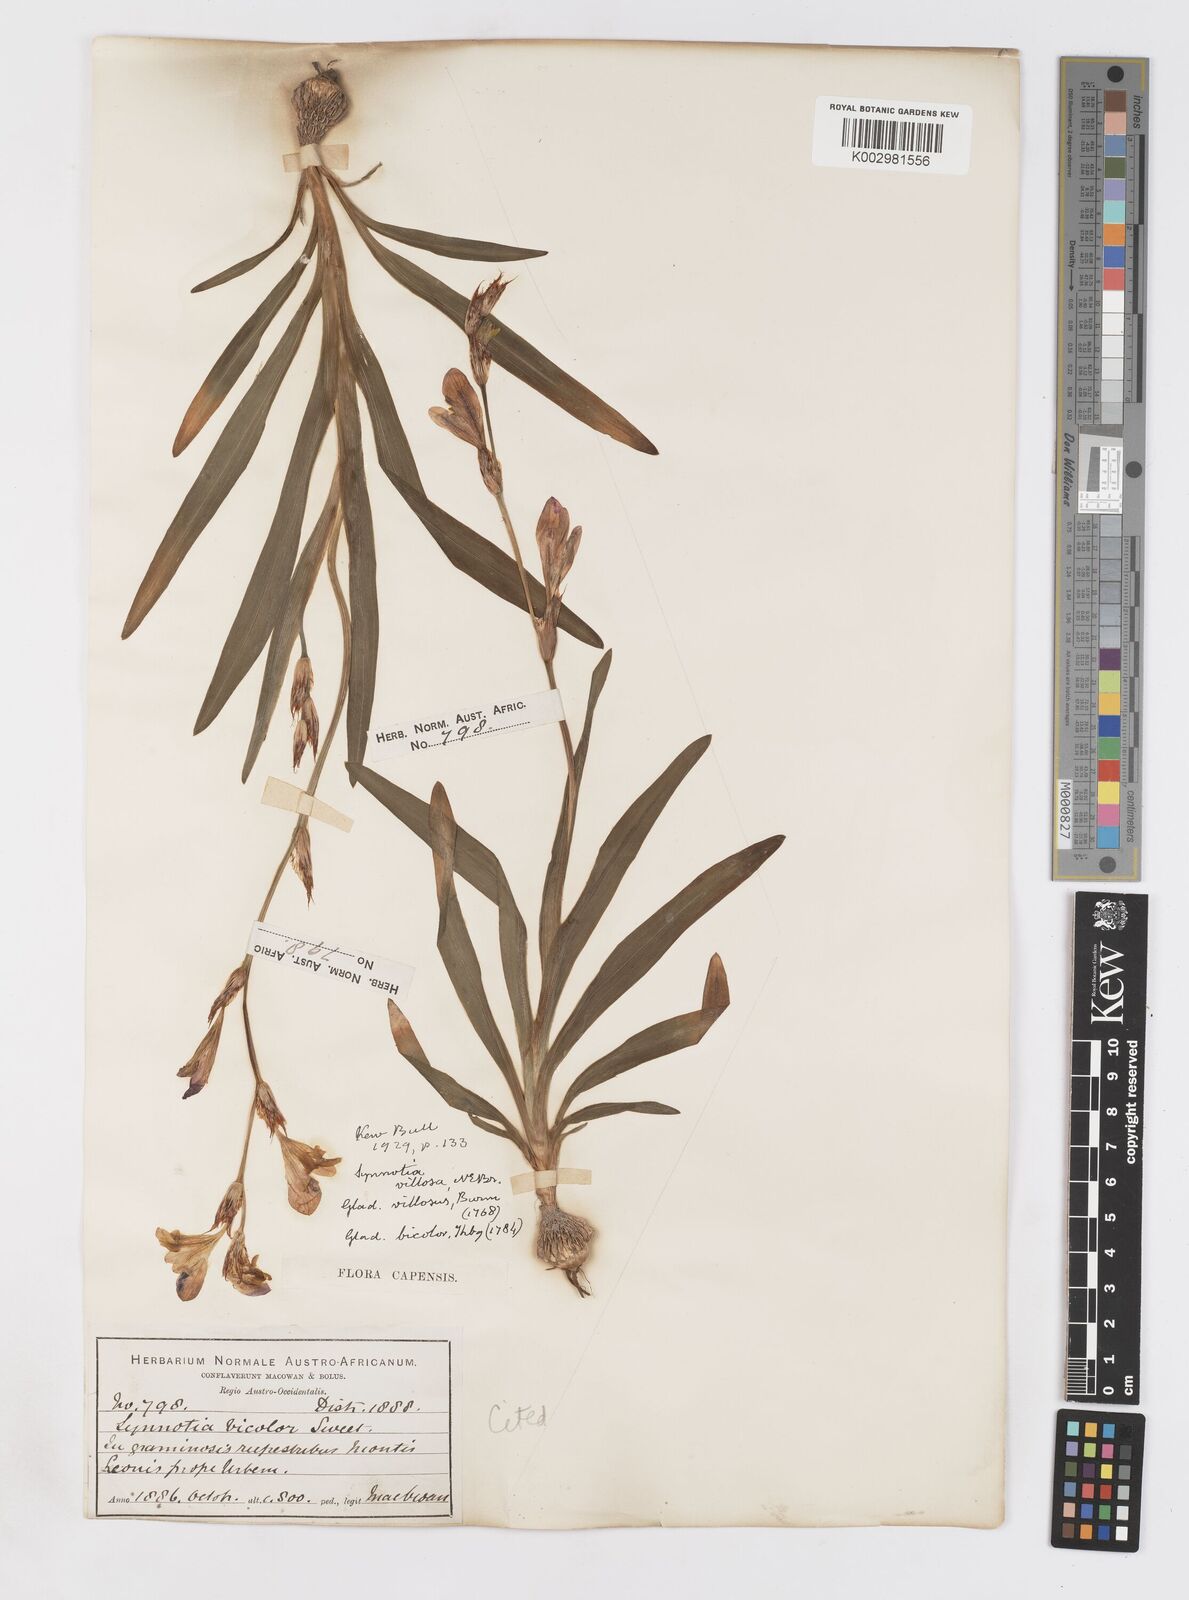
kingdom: Plantae
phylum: Tracheophyta
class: Liliopsida
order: Asparagales
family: Iridaceae
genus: Sparaxis
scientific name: Sparaxis villosa
